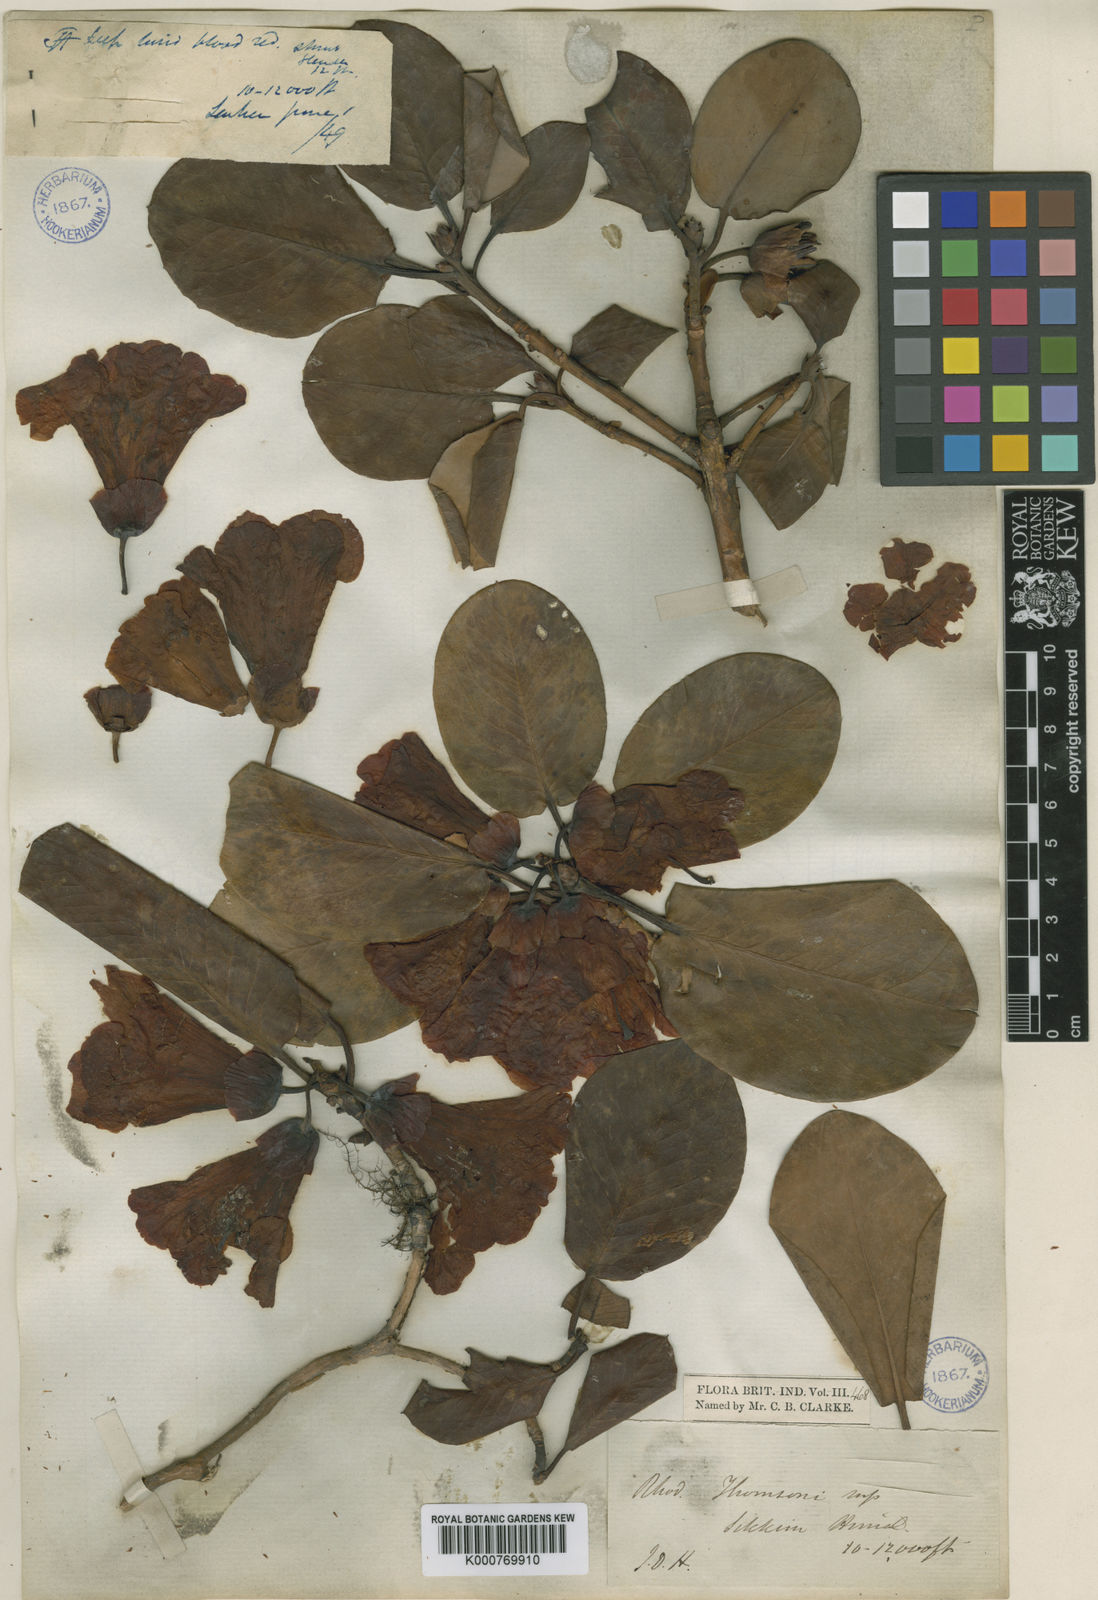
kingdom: Plantae
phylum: Tracheophyta
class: Magnoliopsida
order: Ericales
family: Ericaceae
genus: Rhododendron
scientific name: Rhododendron
